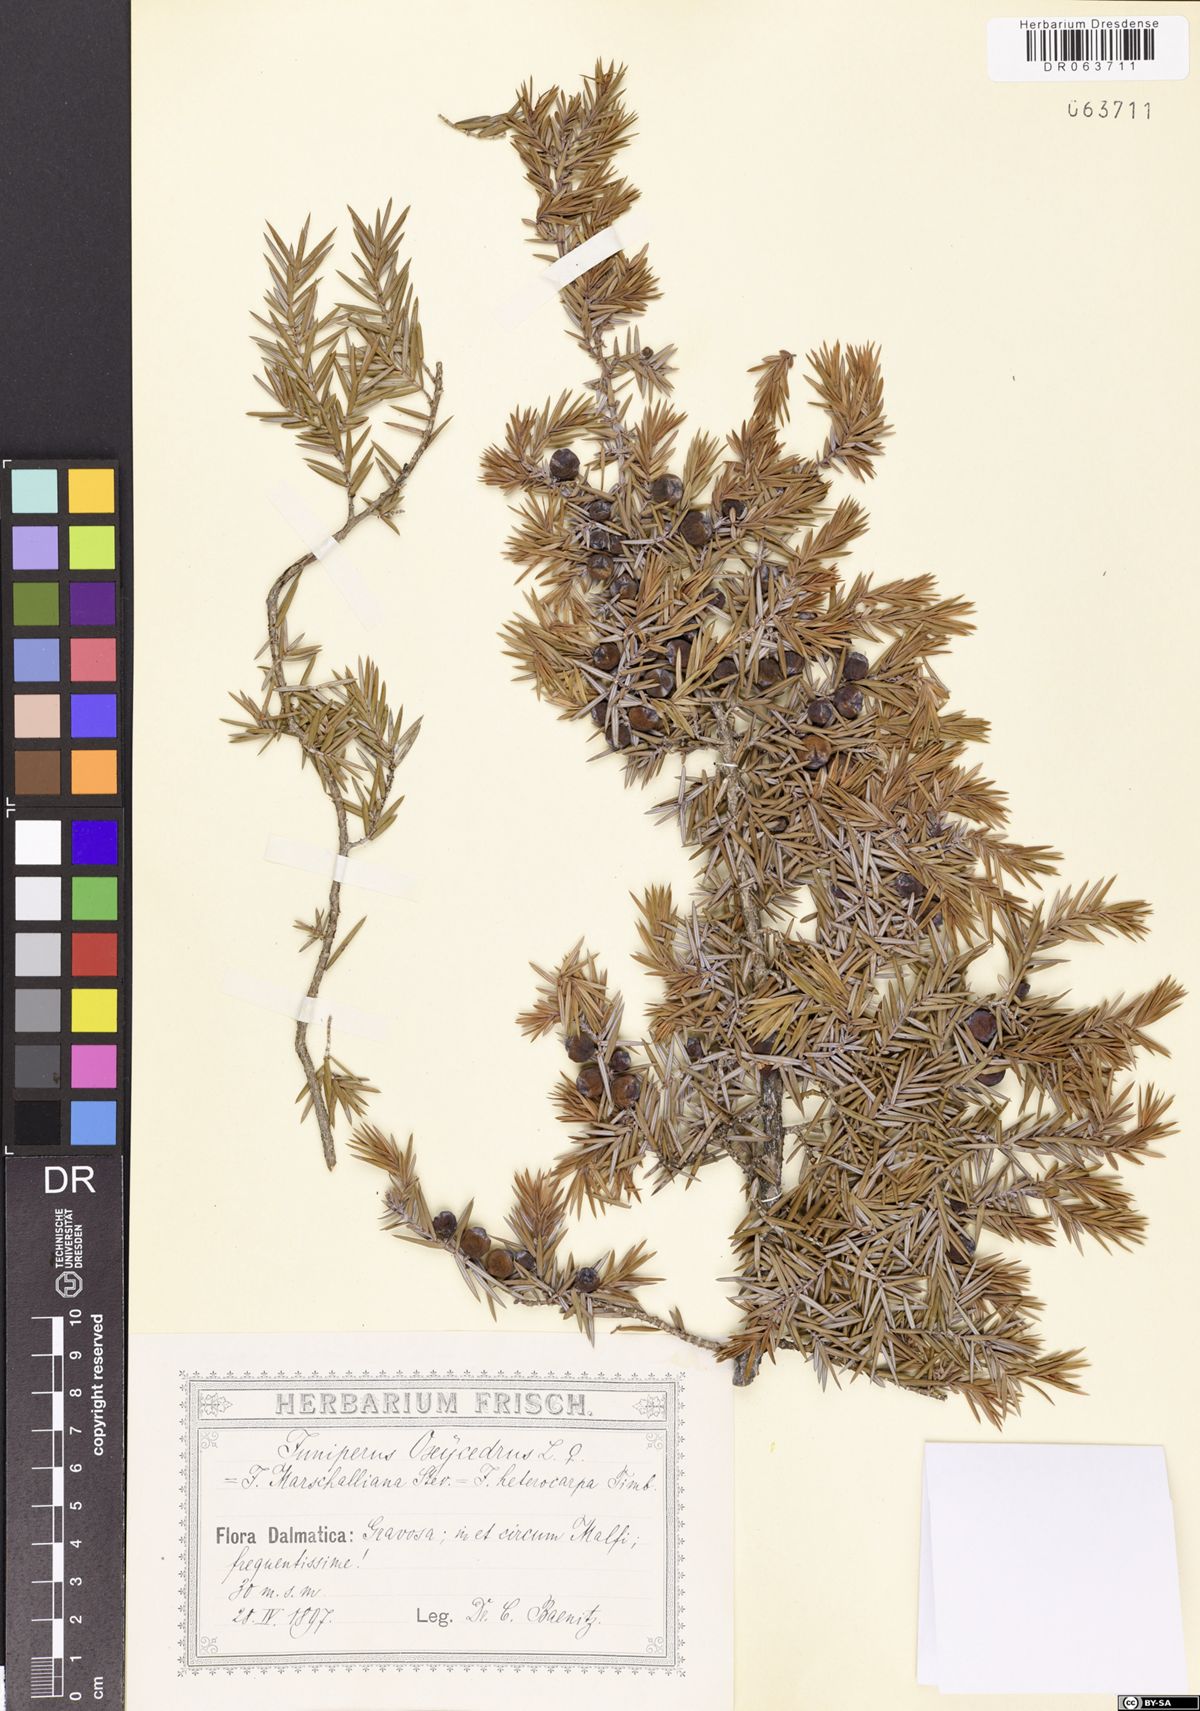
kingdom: Plantae
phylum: Tracheophyta
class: Pinopsida
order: Pinales
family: Cupressaceae
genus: Juniperus
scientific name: Juniperus oxycedrus
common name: Prickly juniper
